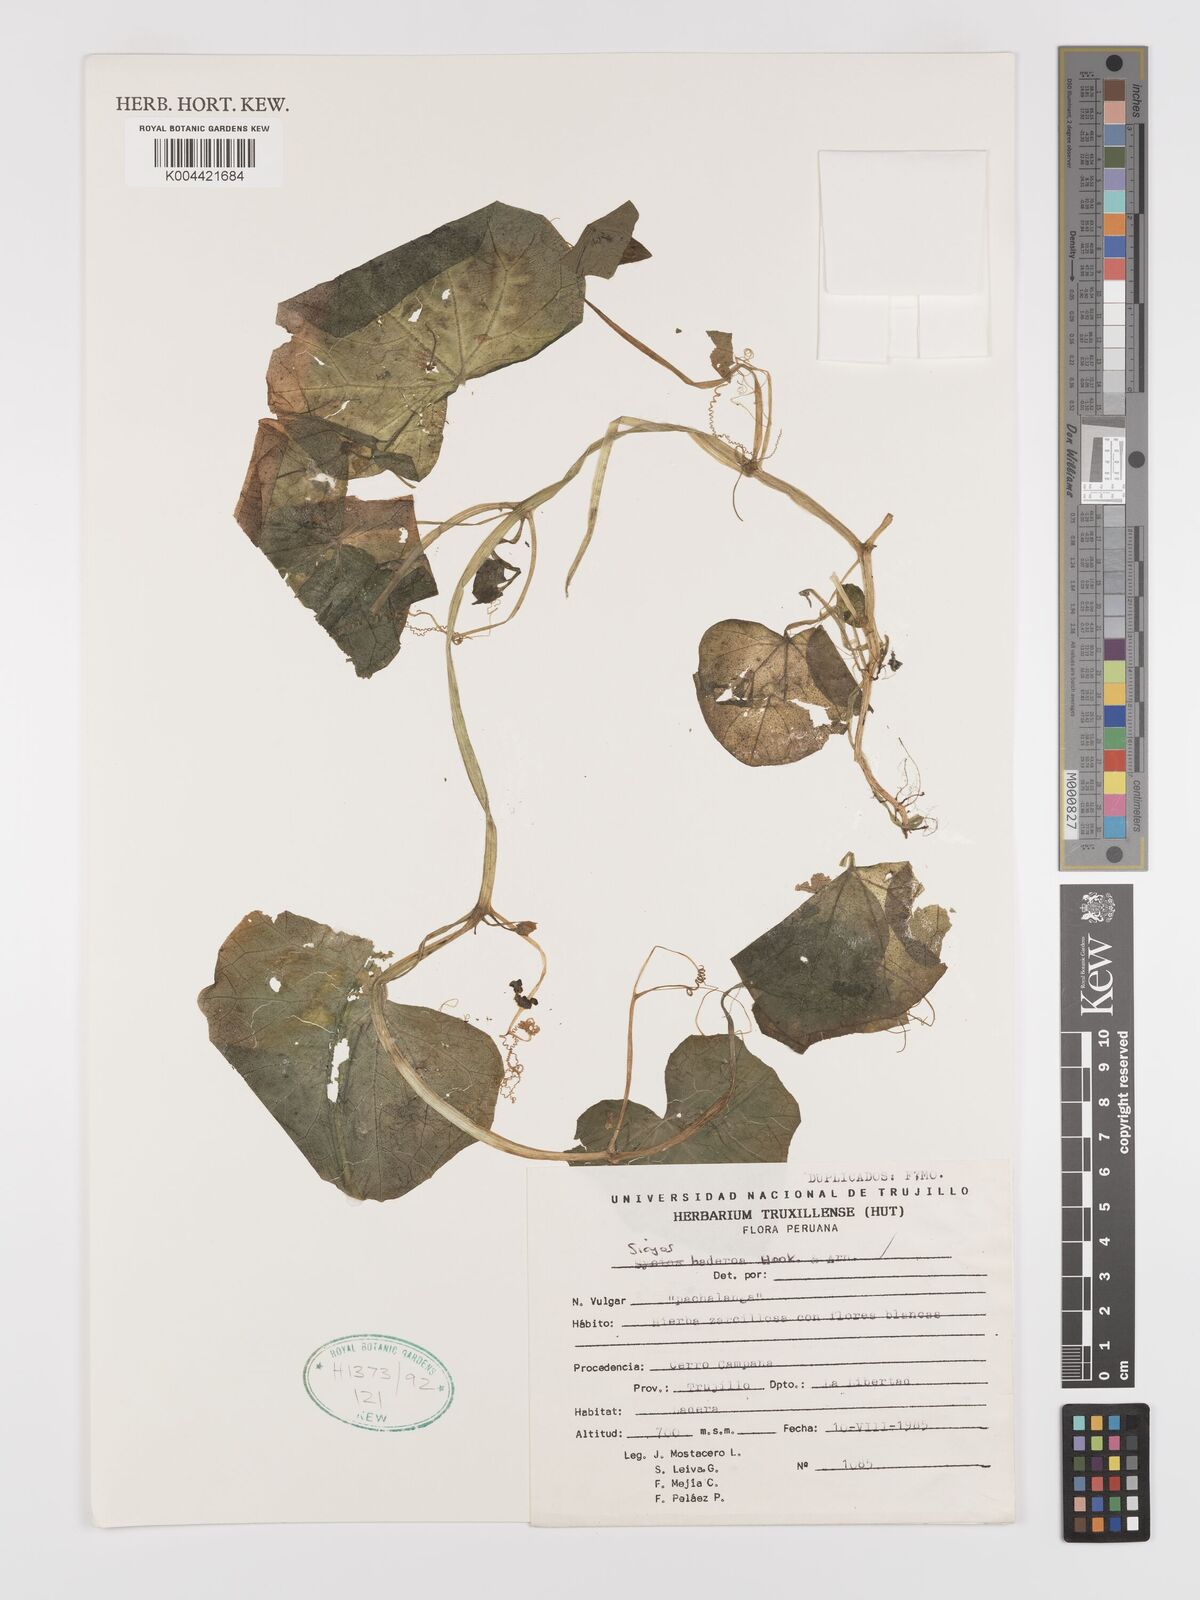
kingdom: Plantae
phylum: Tracheophyta
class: Magnoliopsida
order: Cucurbitales
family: Cucurbitaceae
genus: Sicyos
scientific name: Sicyos baderoa
